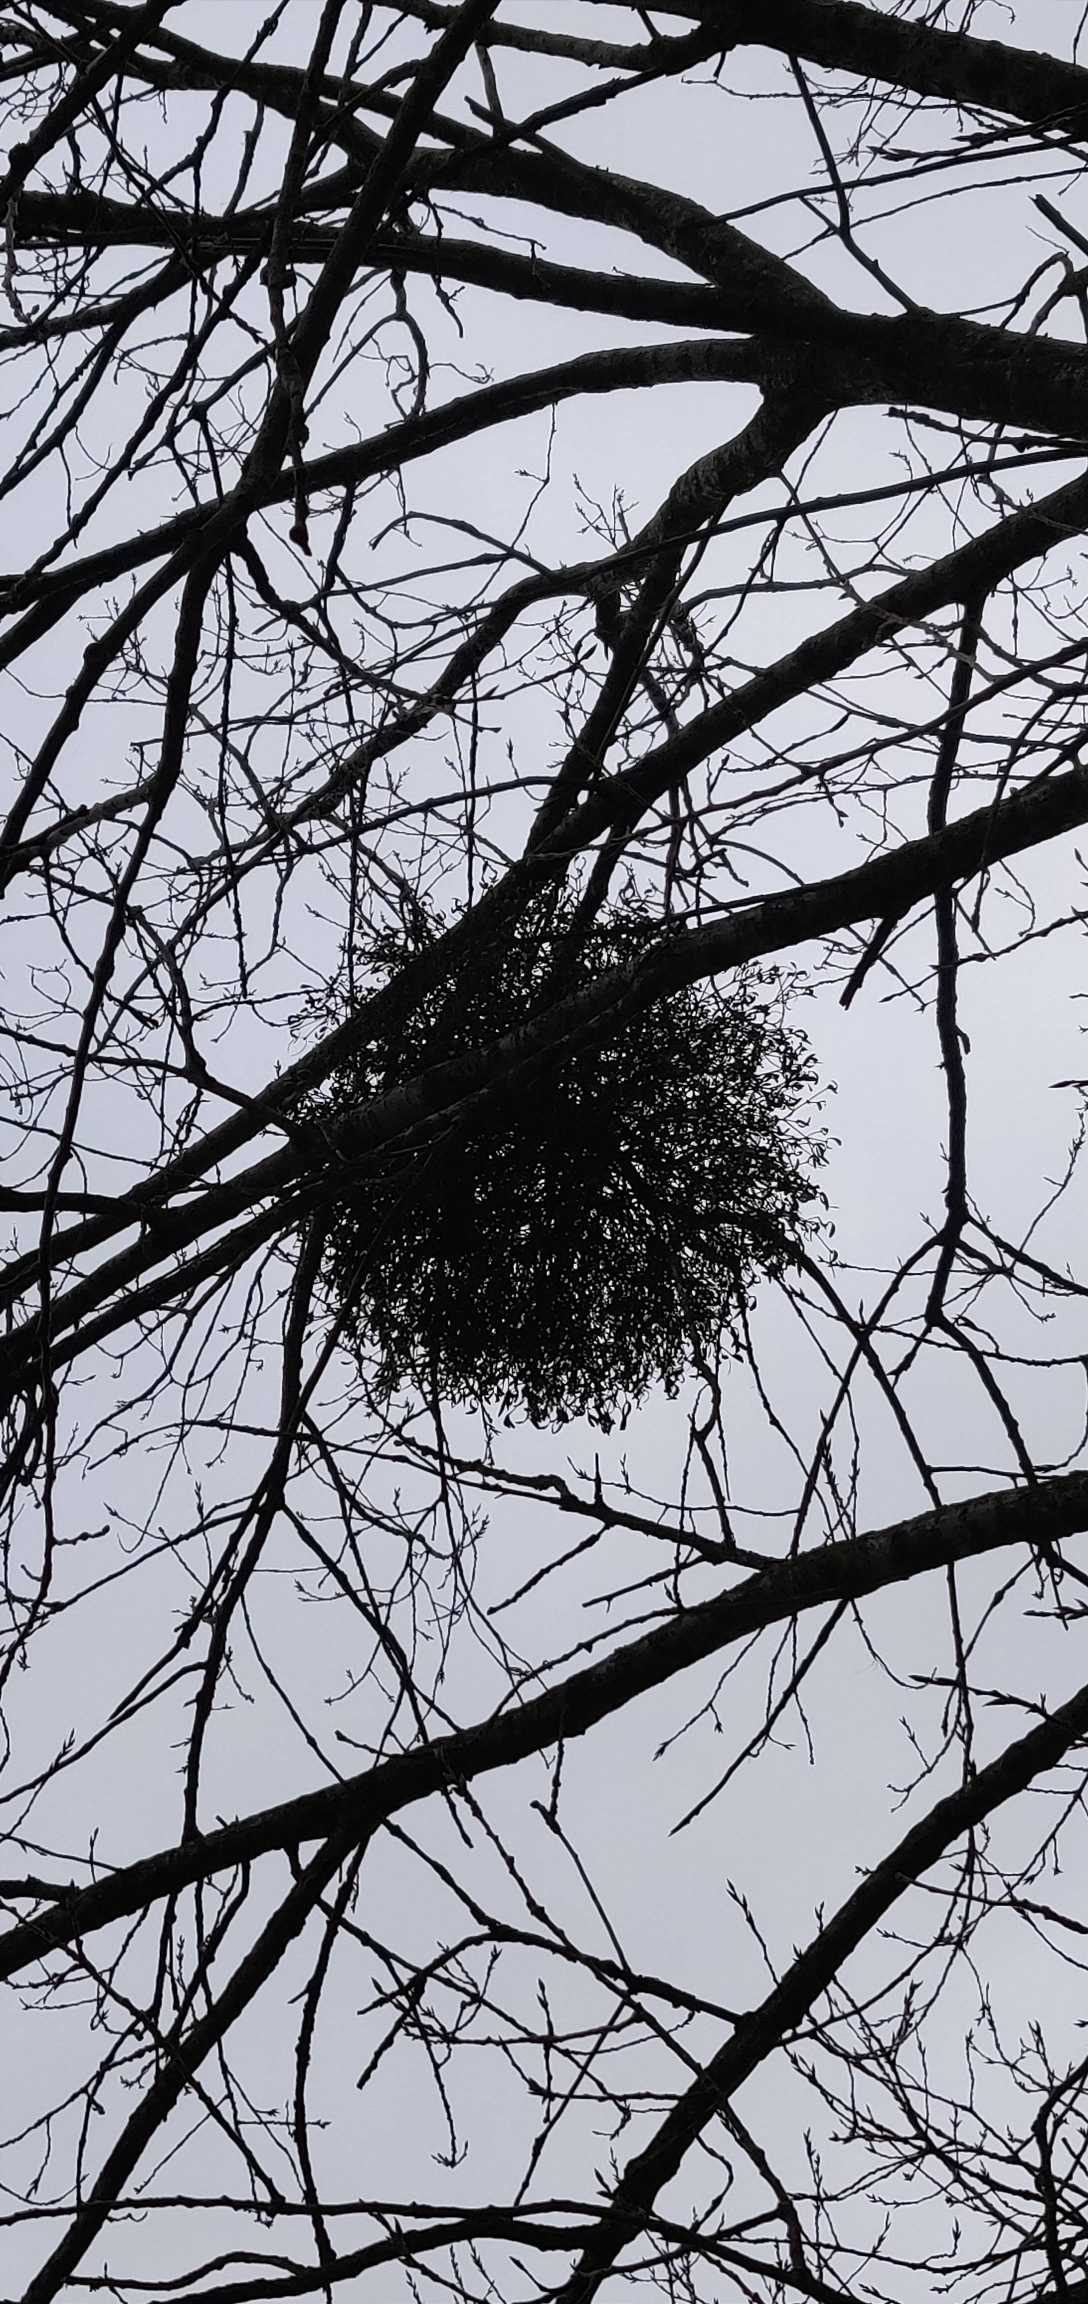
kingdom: Plantae
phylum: Tracheophyta
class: Magnoliopsida
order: Santalales
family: Viscaceae
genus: Viscum
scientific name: Viscum album
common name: Mistelten
